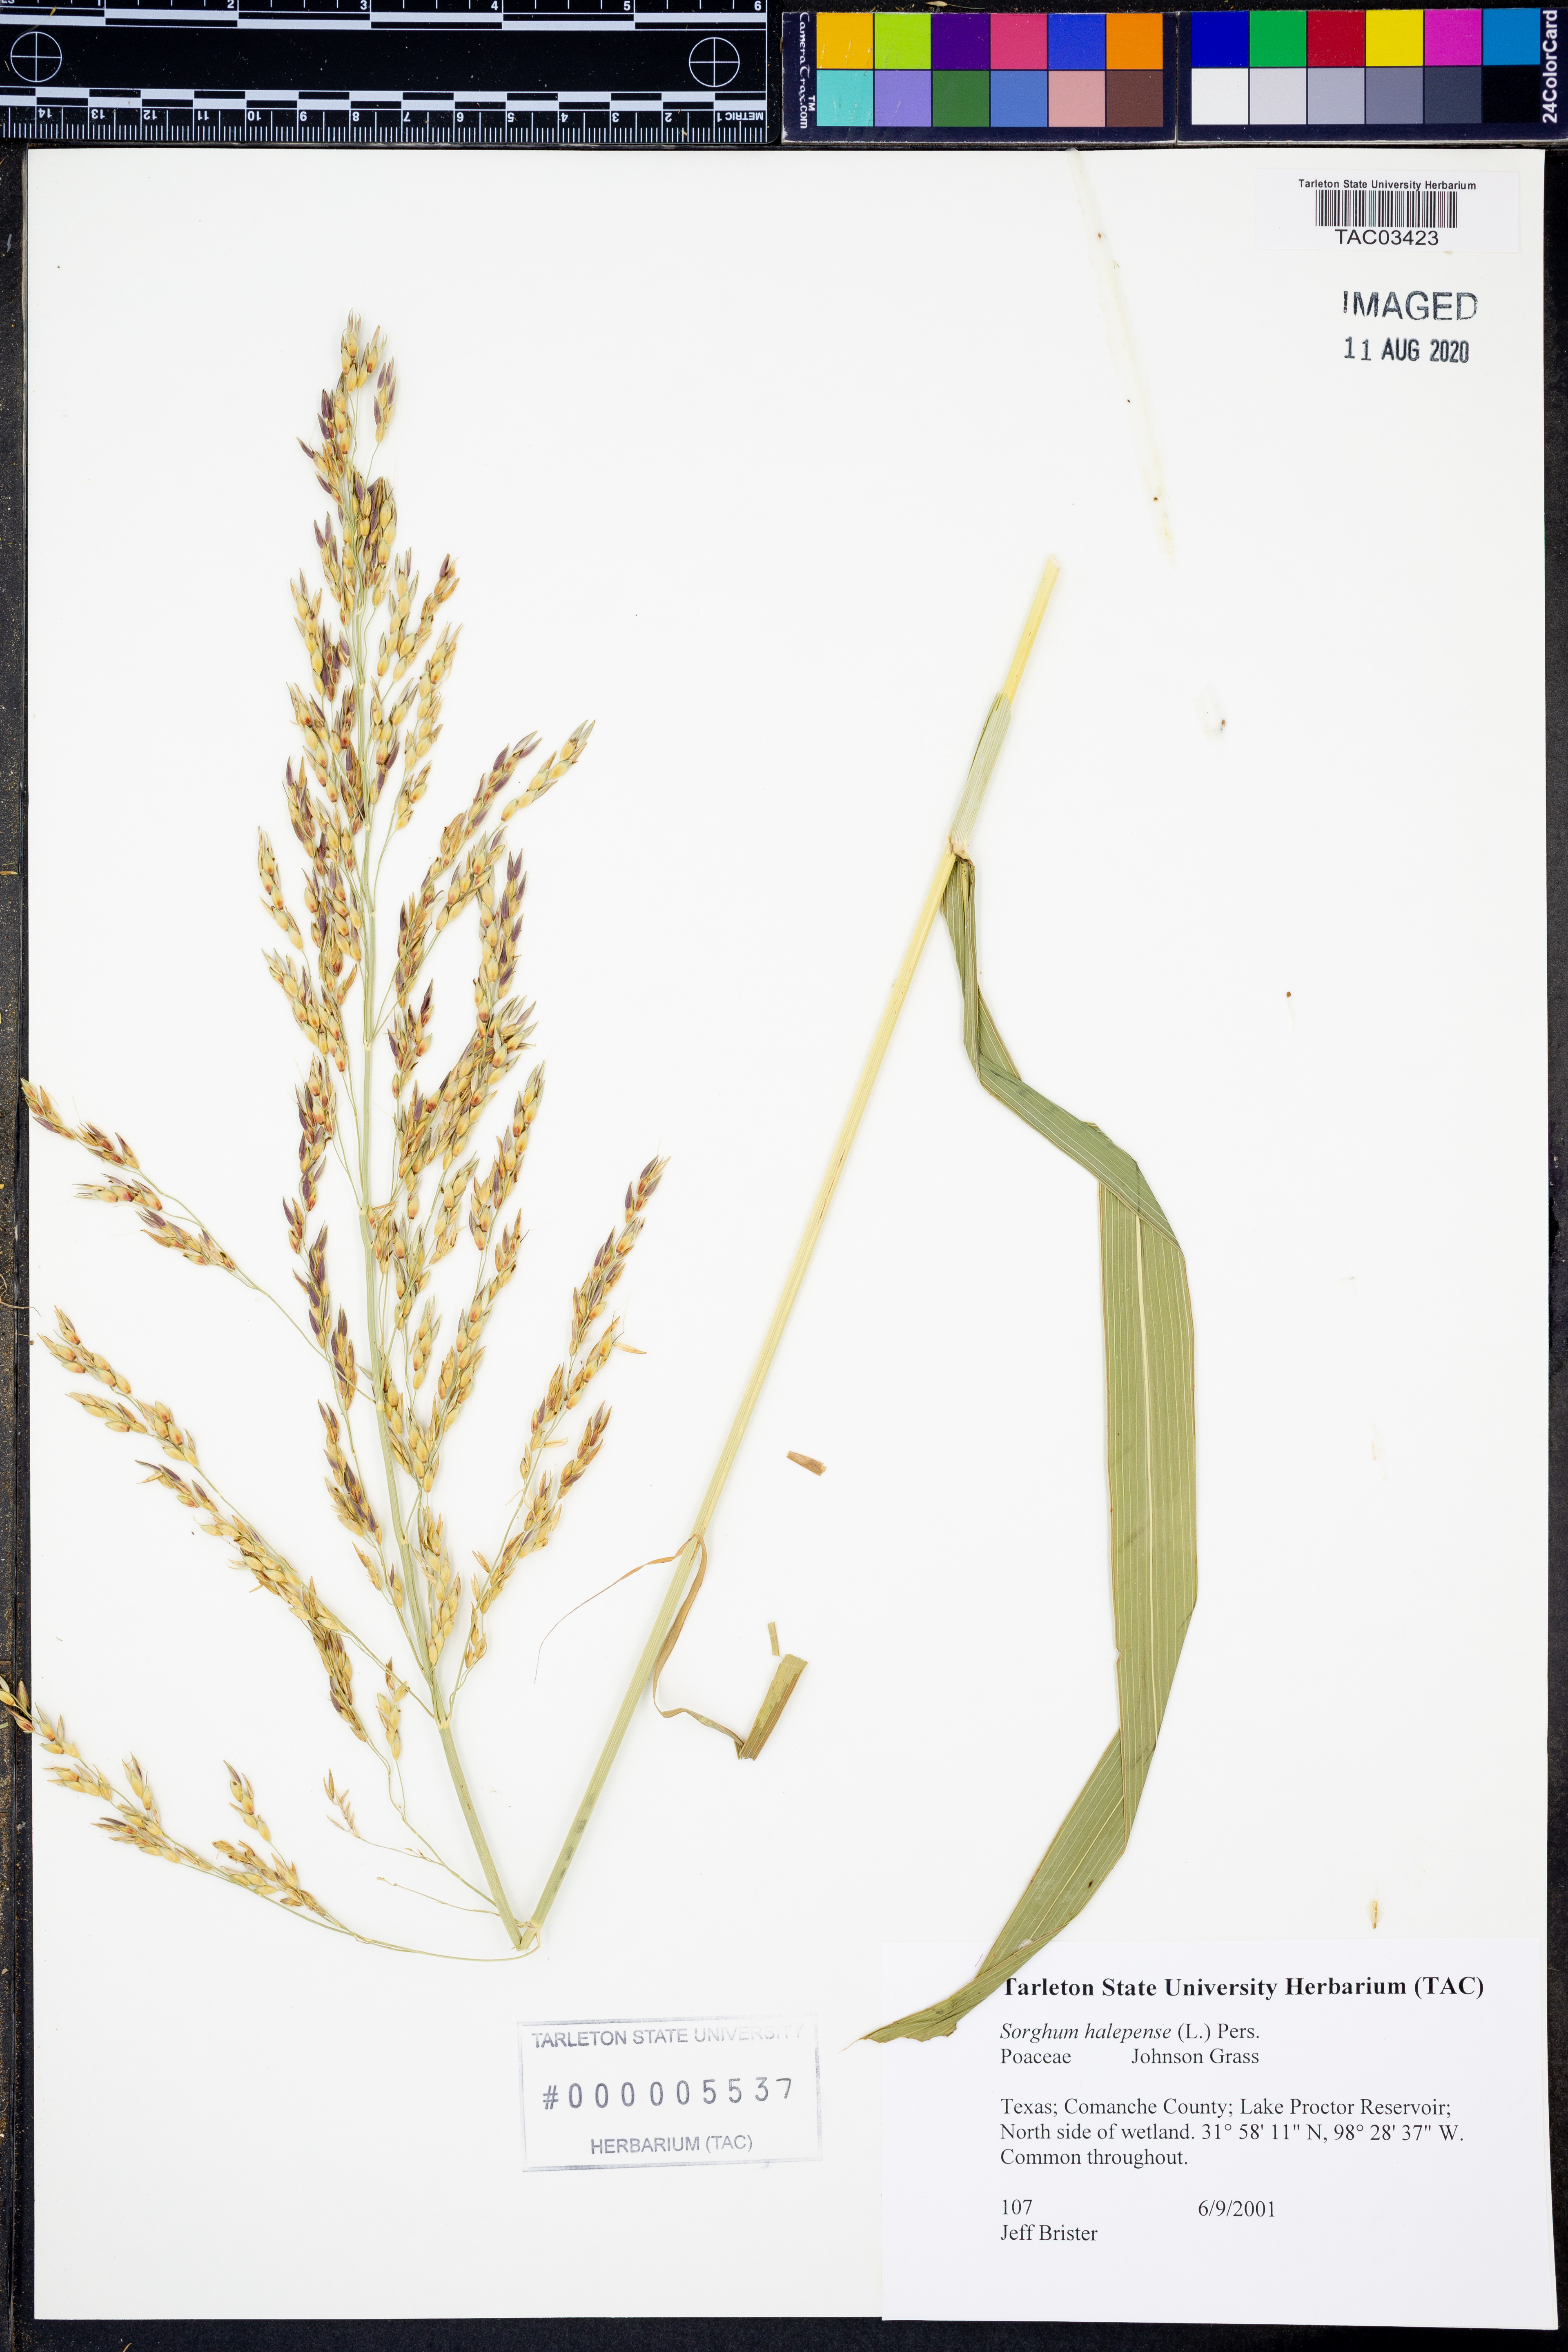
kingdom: Plantae
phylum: Tracheophyta
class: Liliopsida
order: Poales
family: Poaceae
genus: Sorghum
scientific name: Sorghum halepense
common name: Johnson-grass
